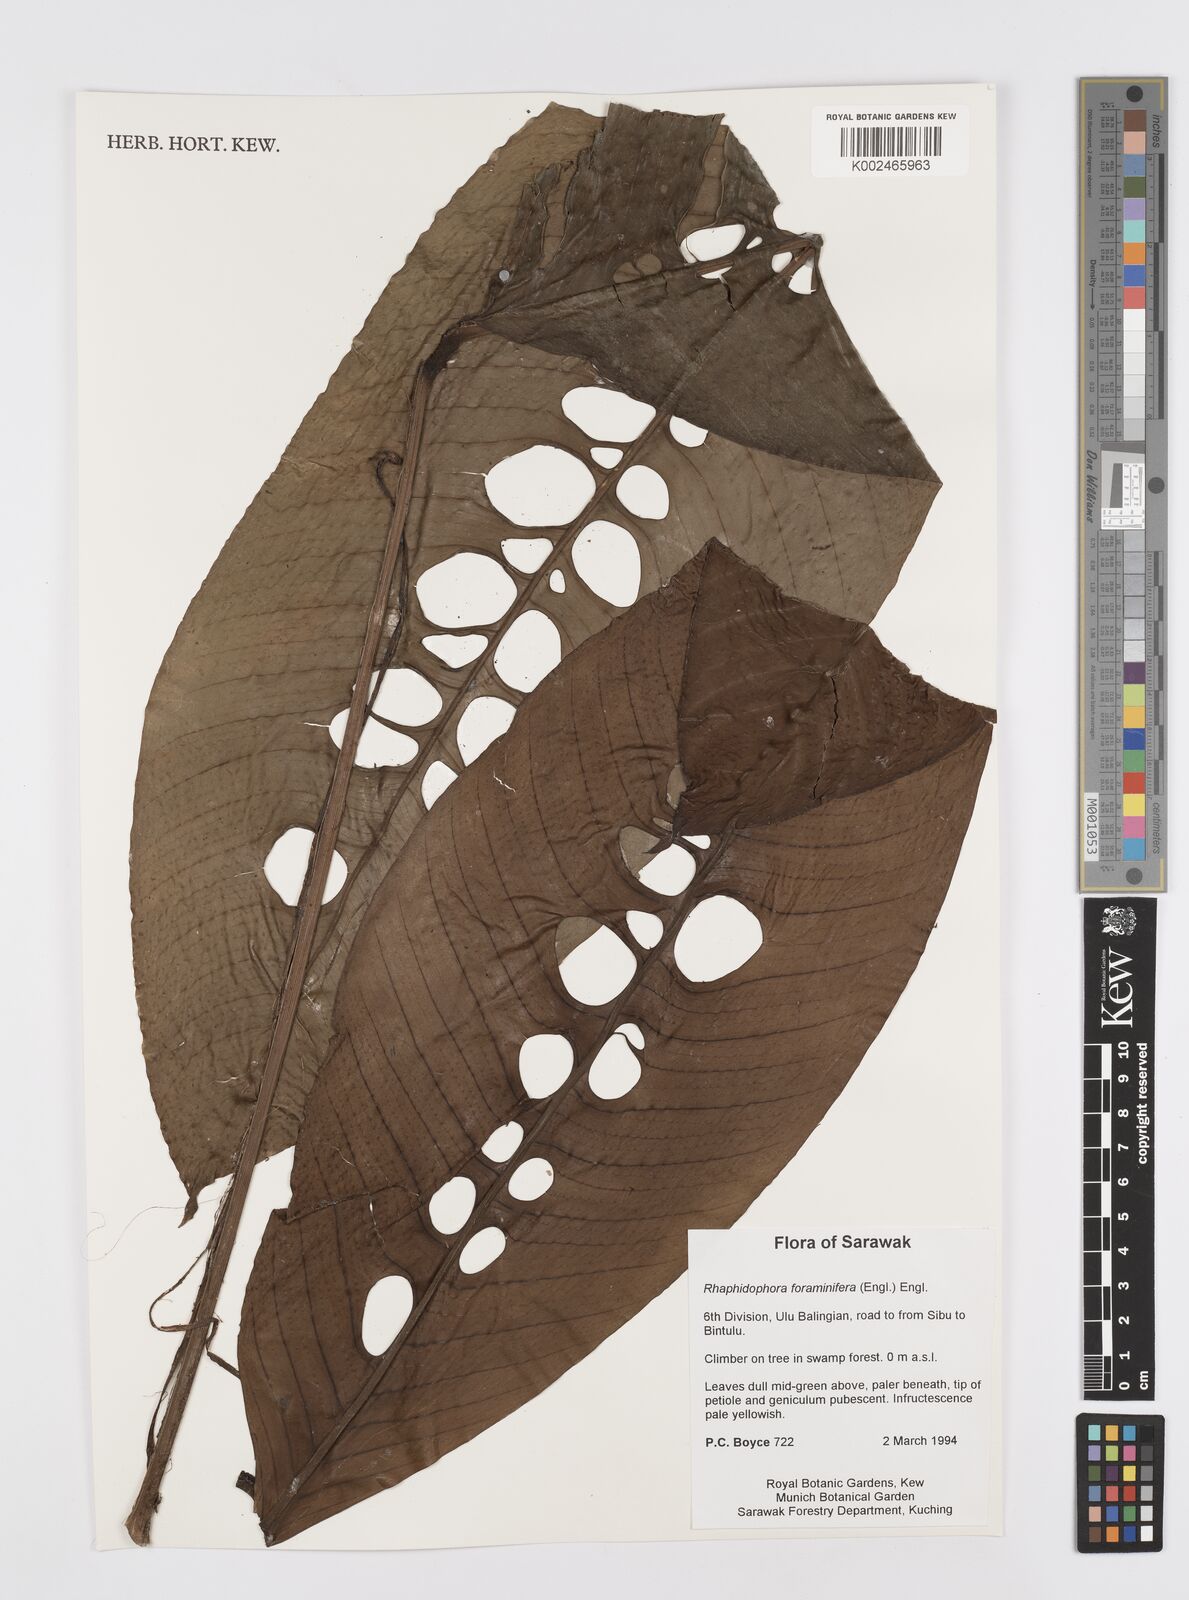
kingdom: Plantae
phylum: Tracheophyta
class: Liliopsida
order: Alismatales
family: Araceae
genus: Rhaphidophora
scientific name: Rhaphidophora foraminifera
